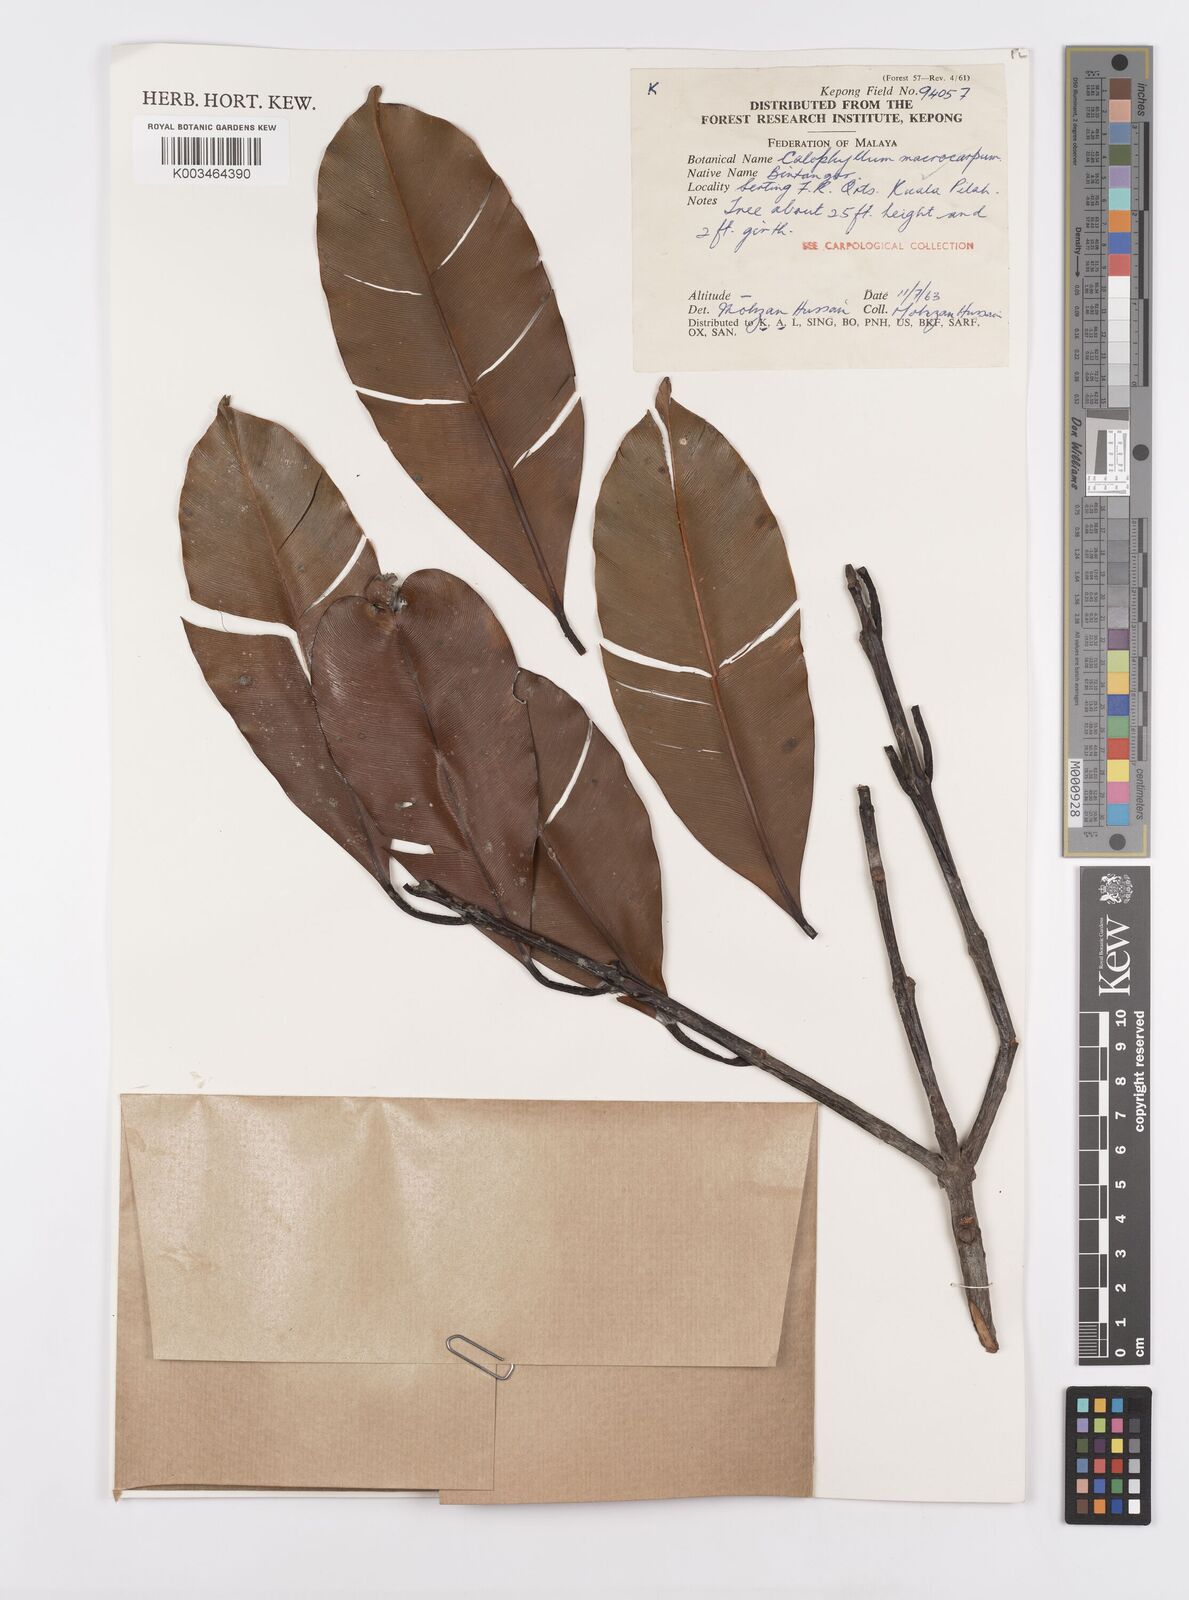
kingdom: Plantae
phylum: Tracheophyta
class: Magnoliopsida
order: Malpighiales
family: Calophyllaceae
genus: Calophyllum
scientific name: Calophyllum macrocarpum
